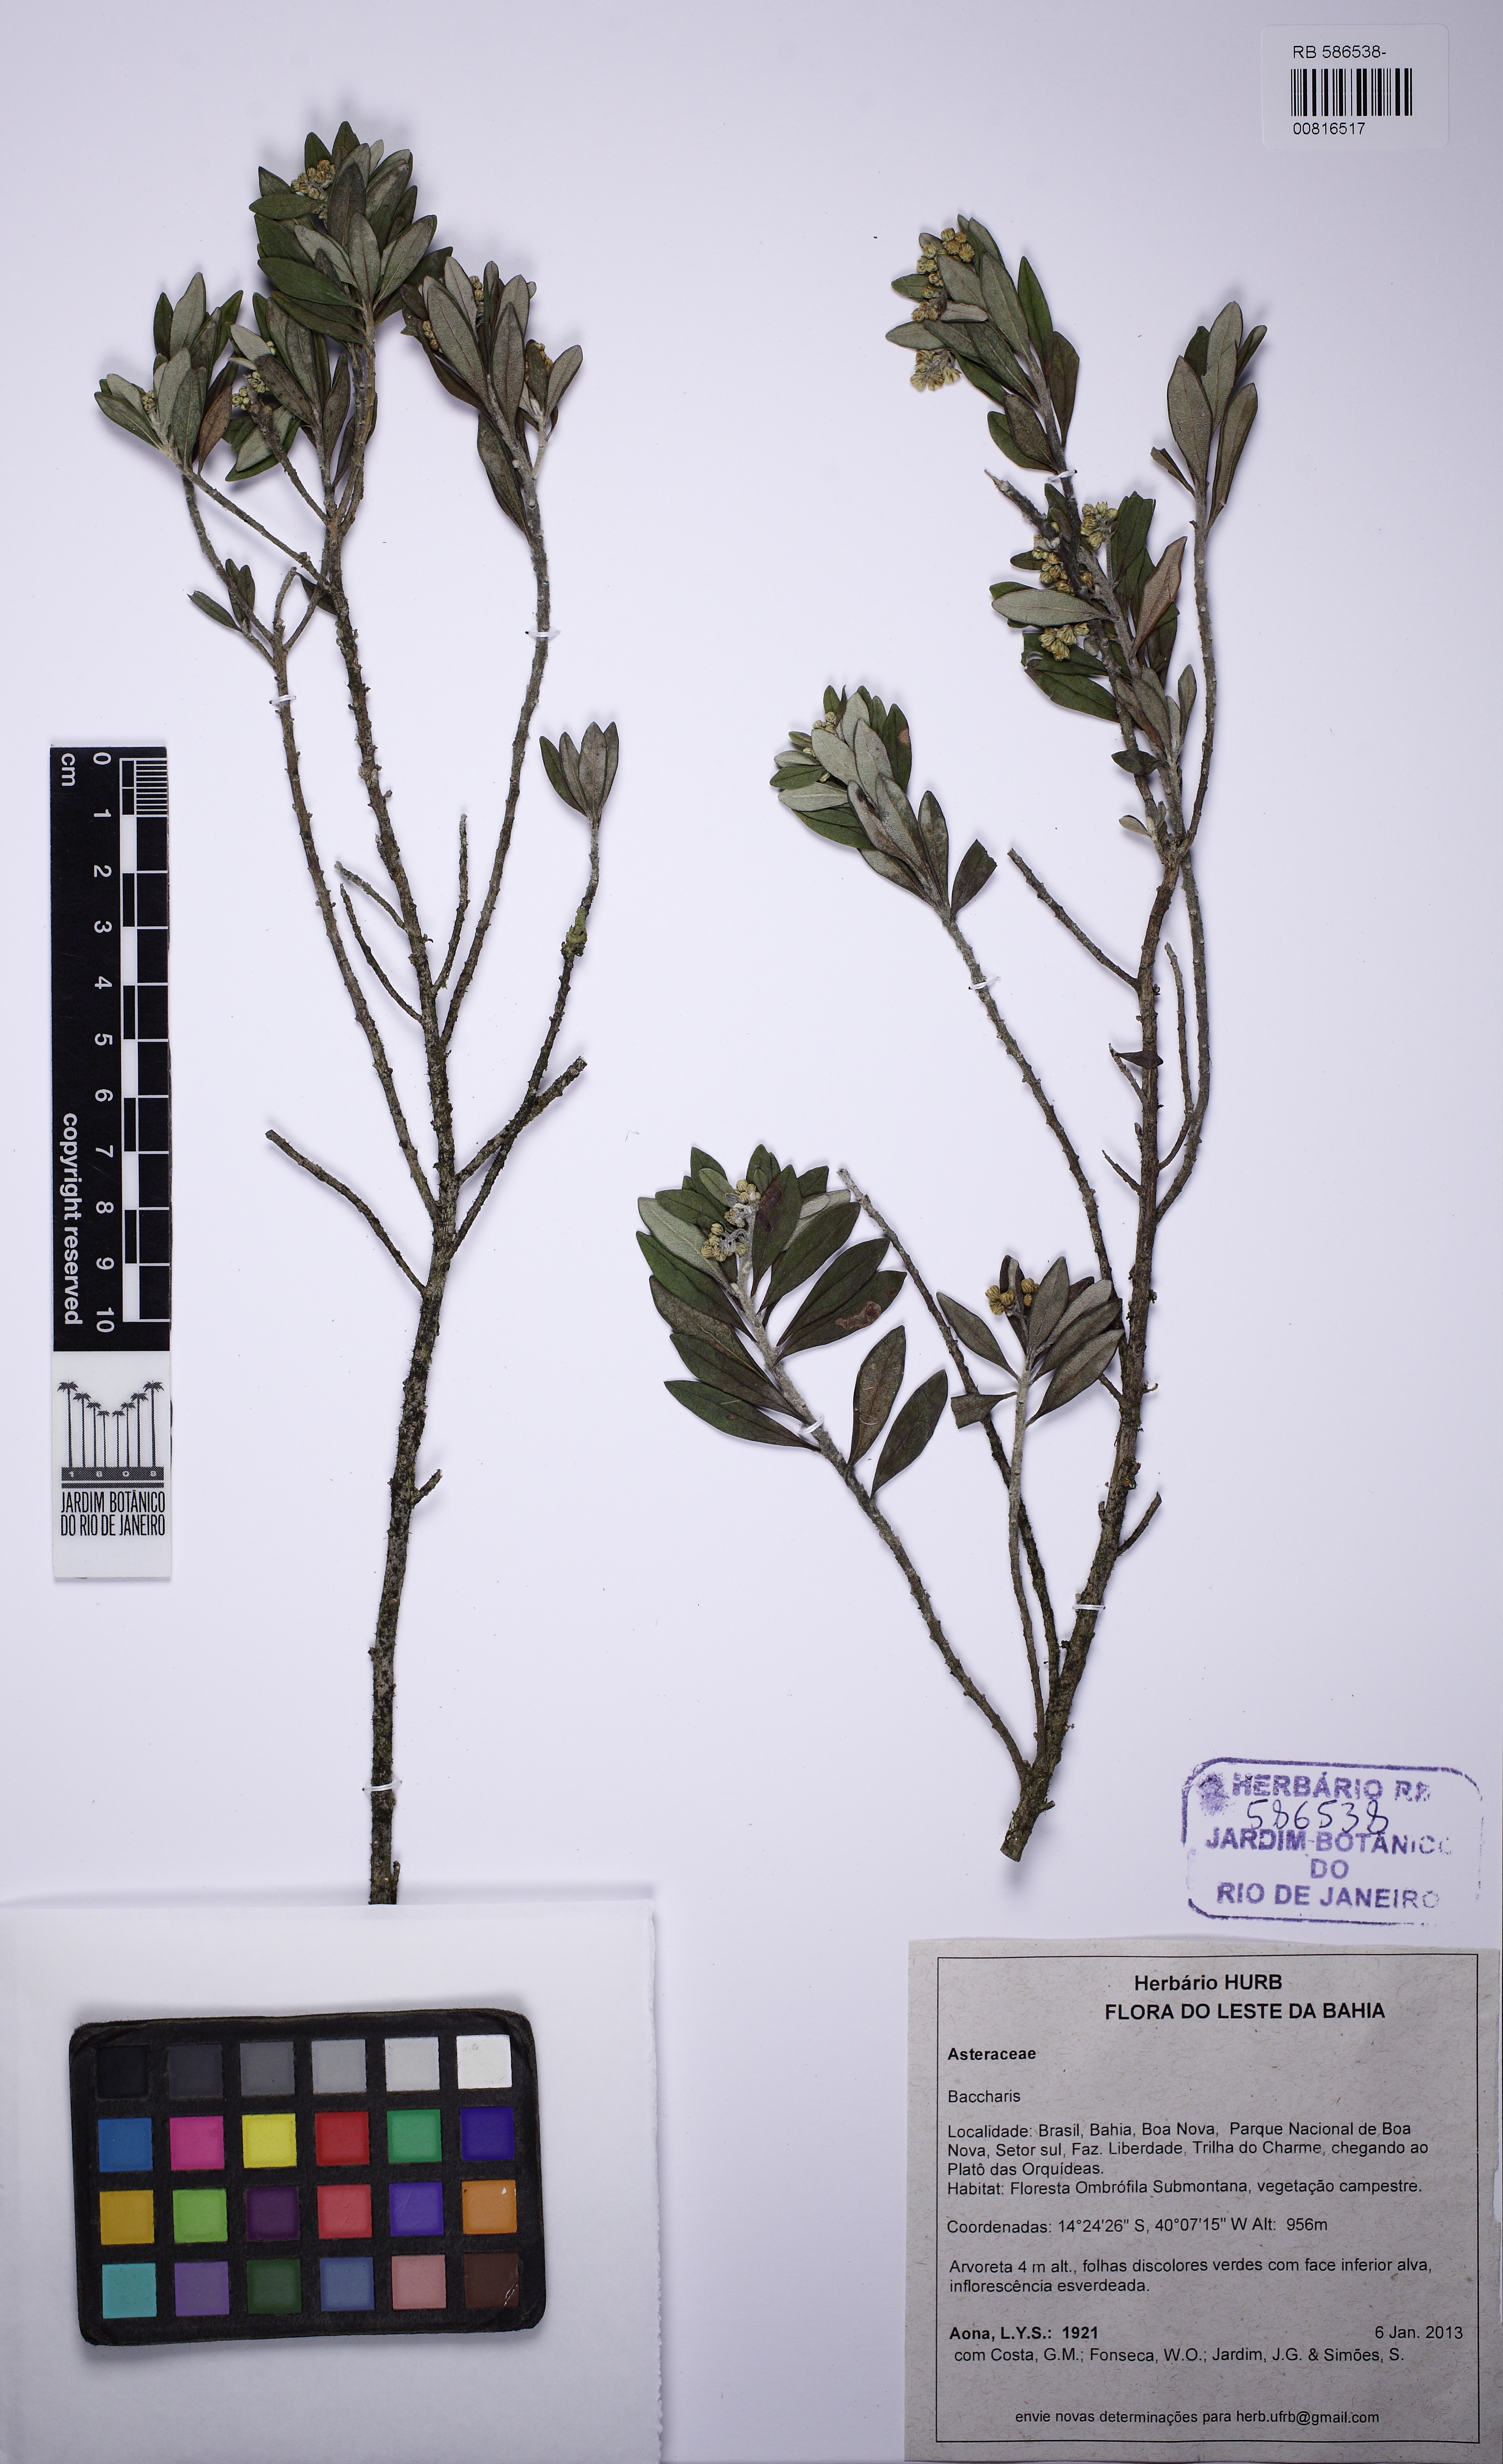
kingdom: Plantae
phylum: Tracheophyta
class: Magnoliopsida
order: Asterales
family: Asteraceae
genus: Baccharis
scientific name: Baccharis calvescens
